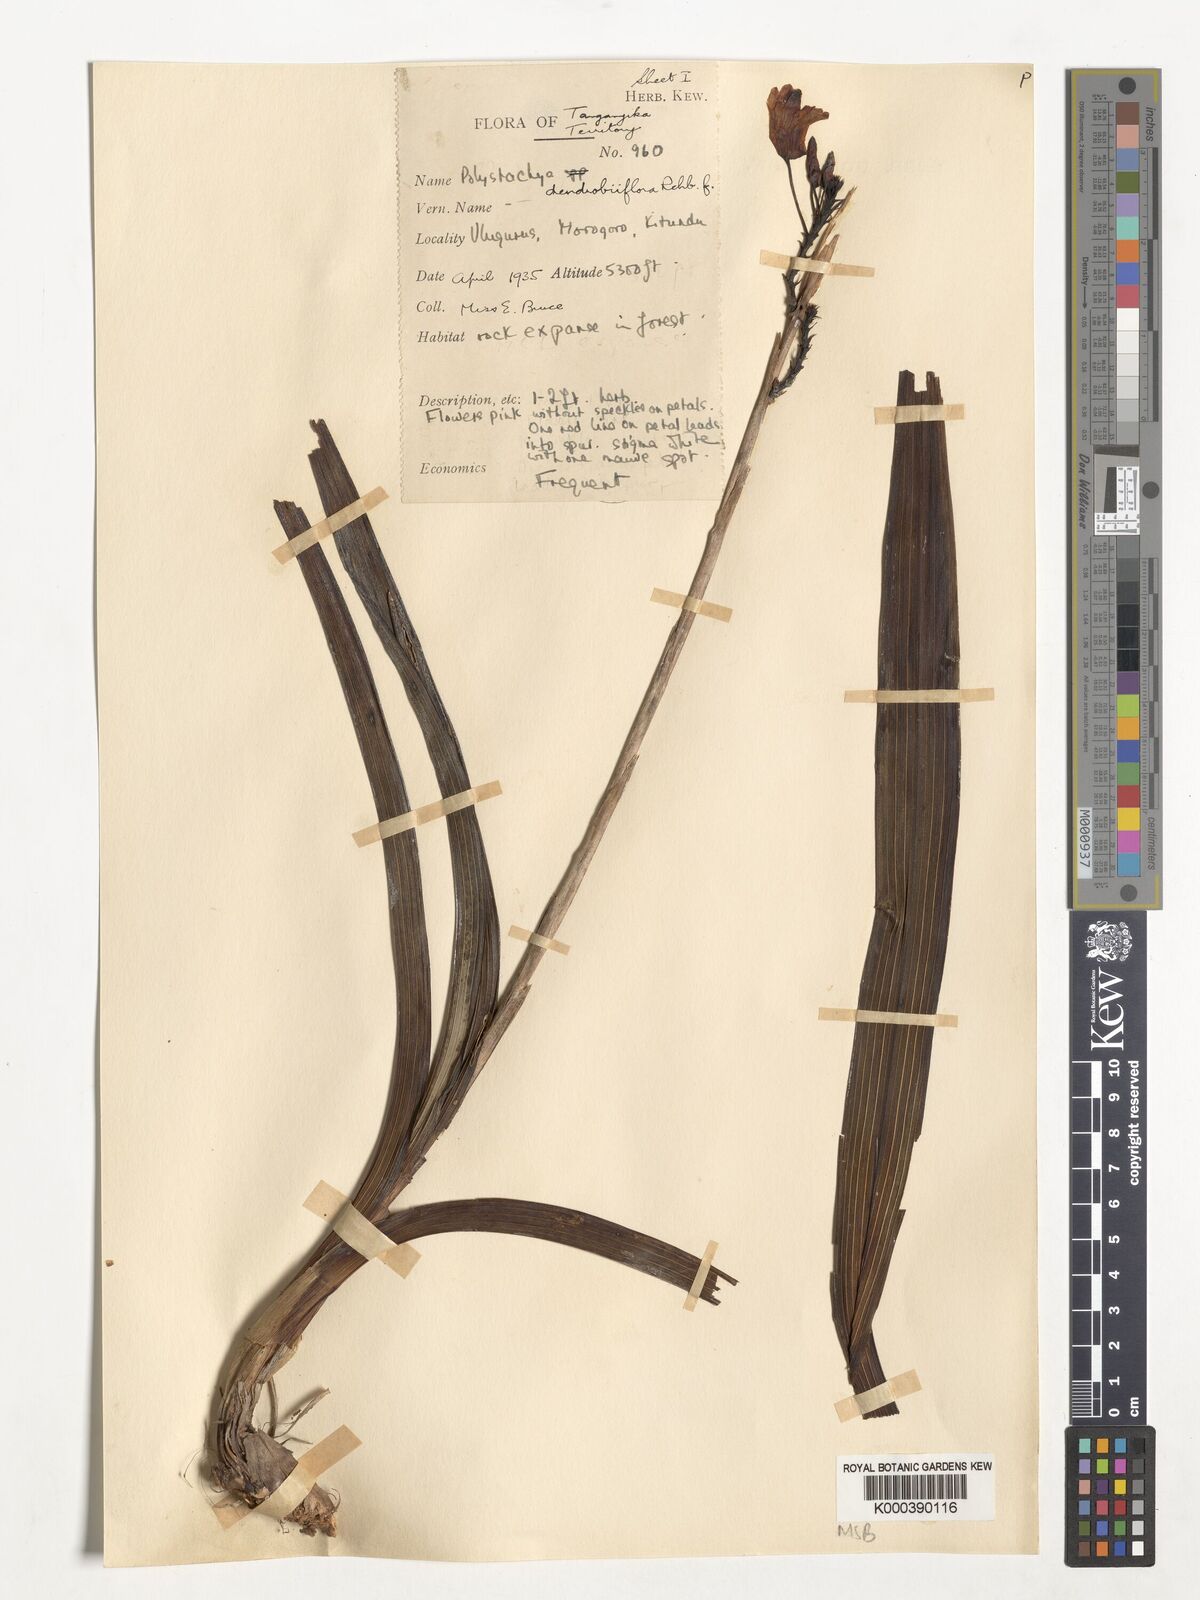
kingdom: Plantae
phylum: Tracheophyta
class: Liliopsida
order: Asparagales
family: Orchidaceae
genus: Polystachya
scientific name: Polystachya longiscapa
